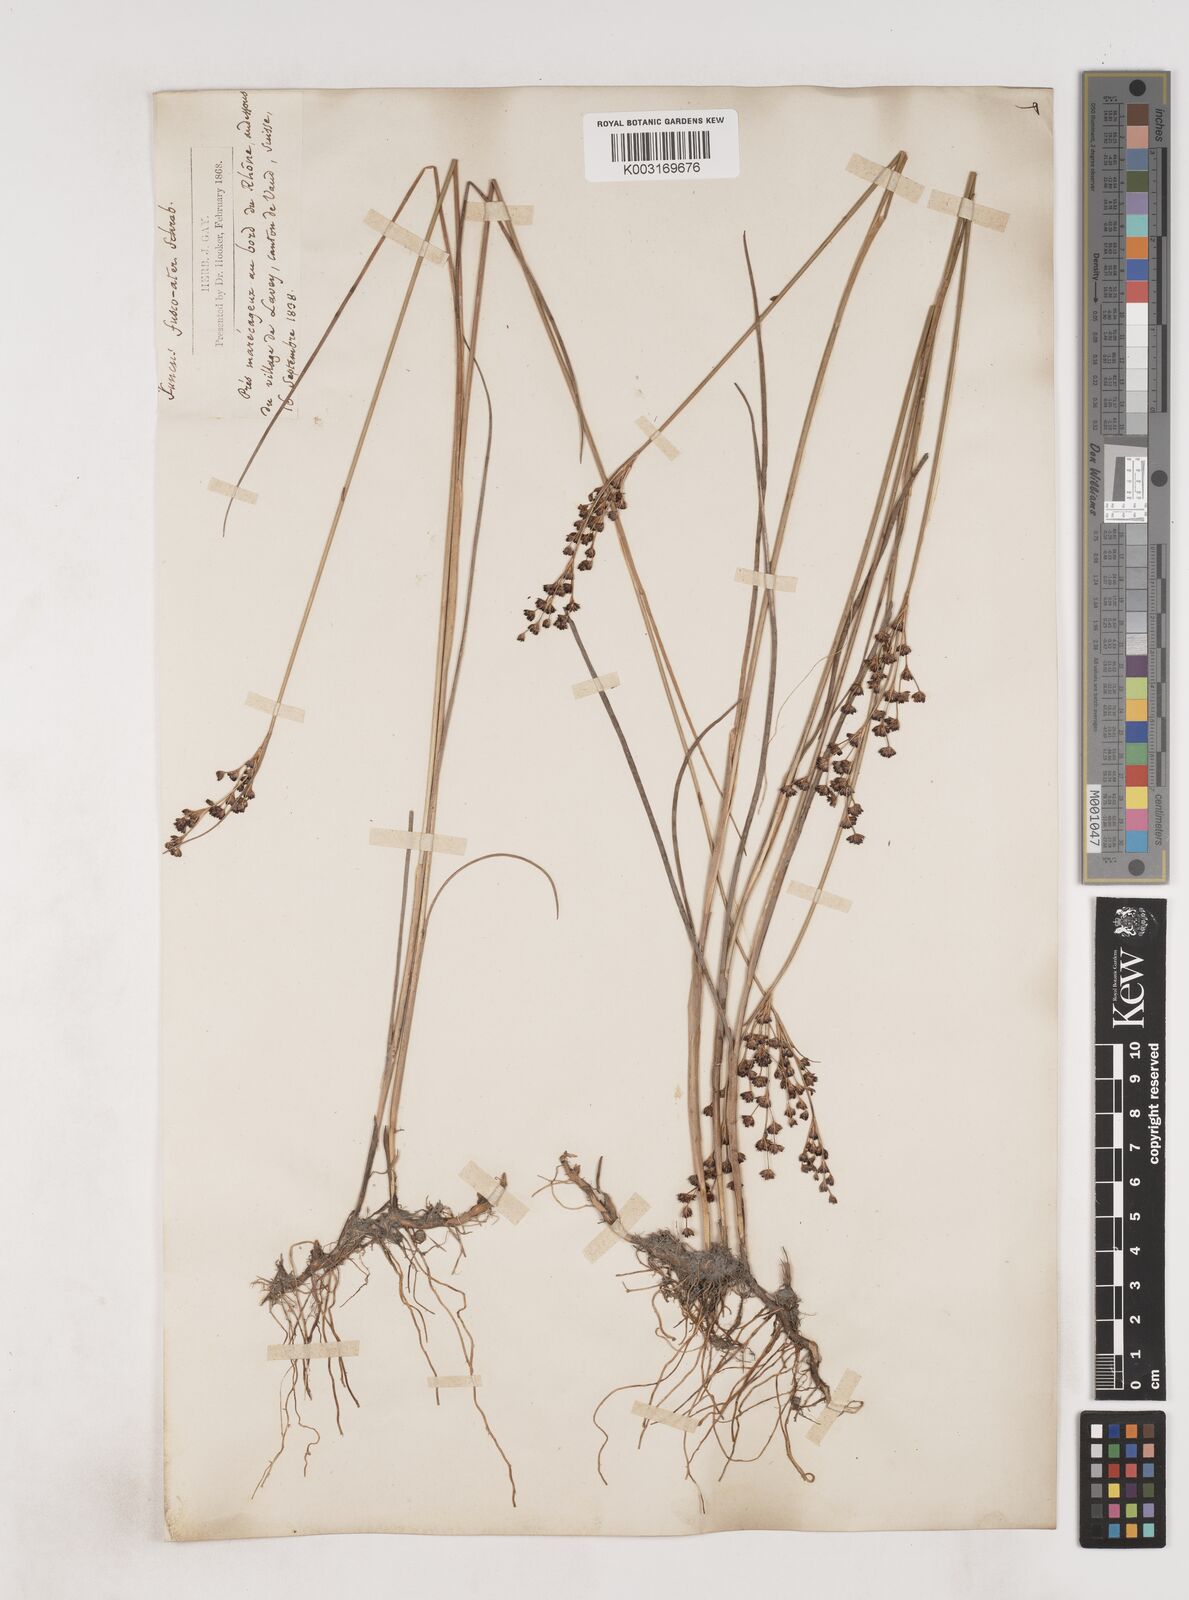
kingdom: Plantae
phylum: Tracheophyta
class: Liliopsida
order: Poales
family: Juncaceae
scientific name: Juncaceae
